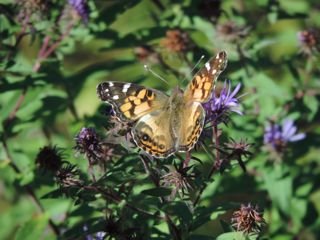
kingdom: Animalia
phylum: Arthropoda
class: Insecta
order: Lepidoptera
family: Nymphalidae
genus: Vanessa
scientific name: Vanessa virginiensis
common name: American Lady
